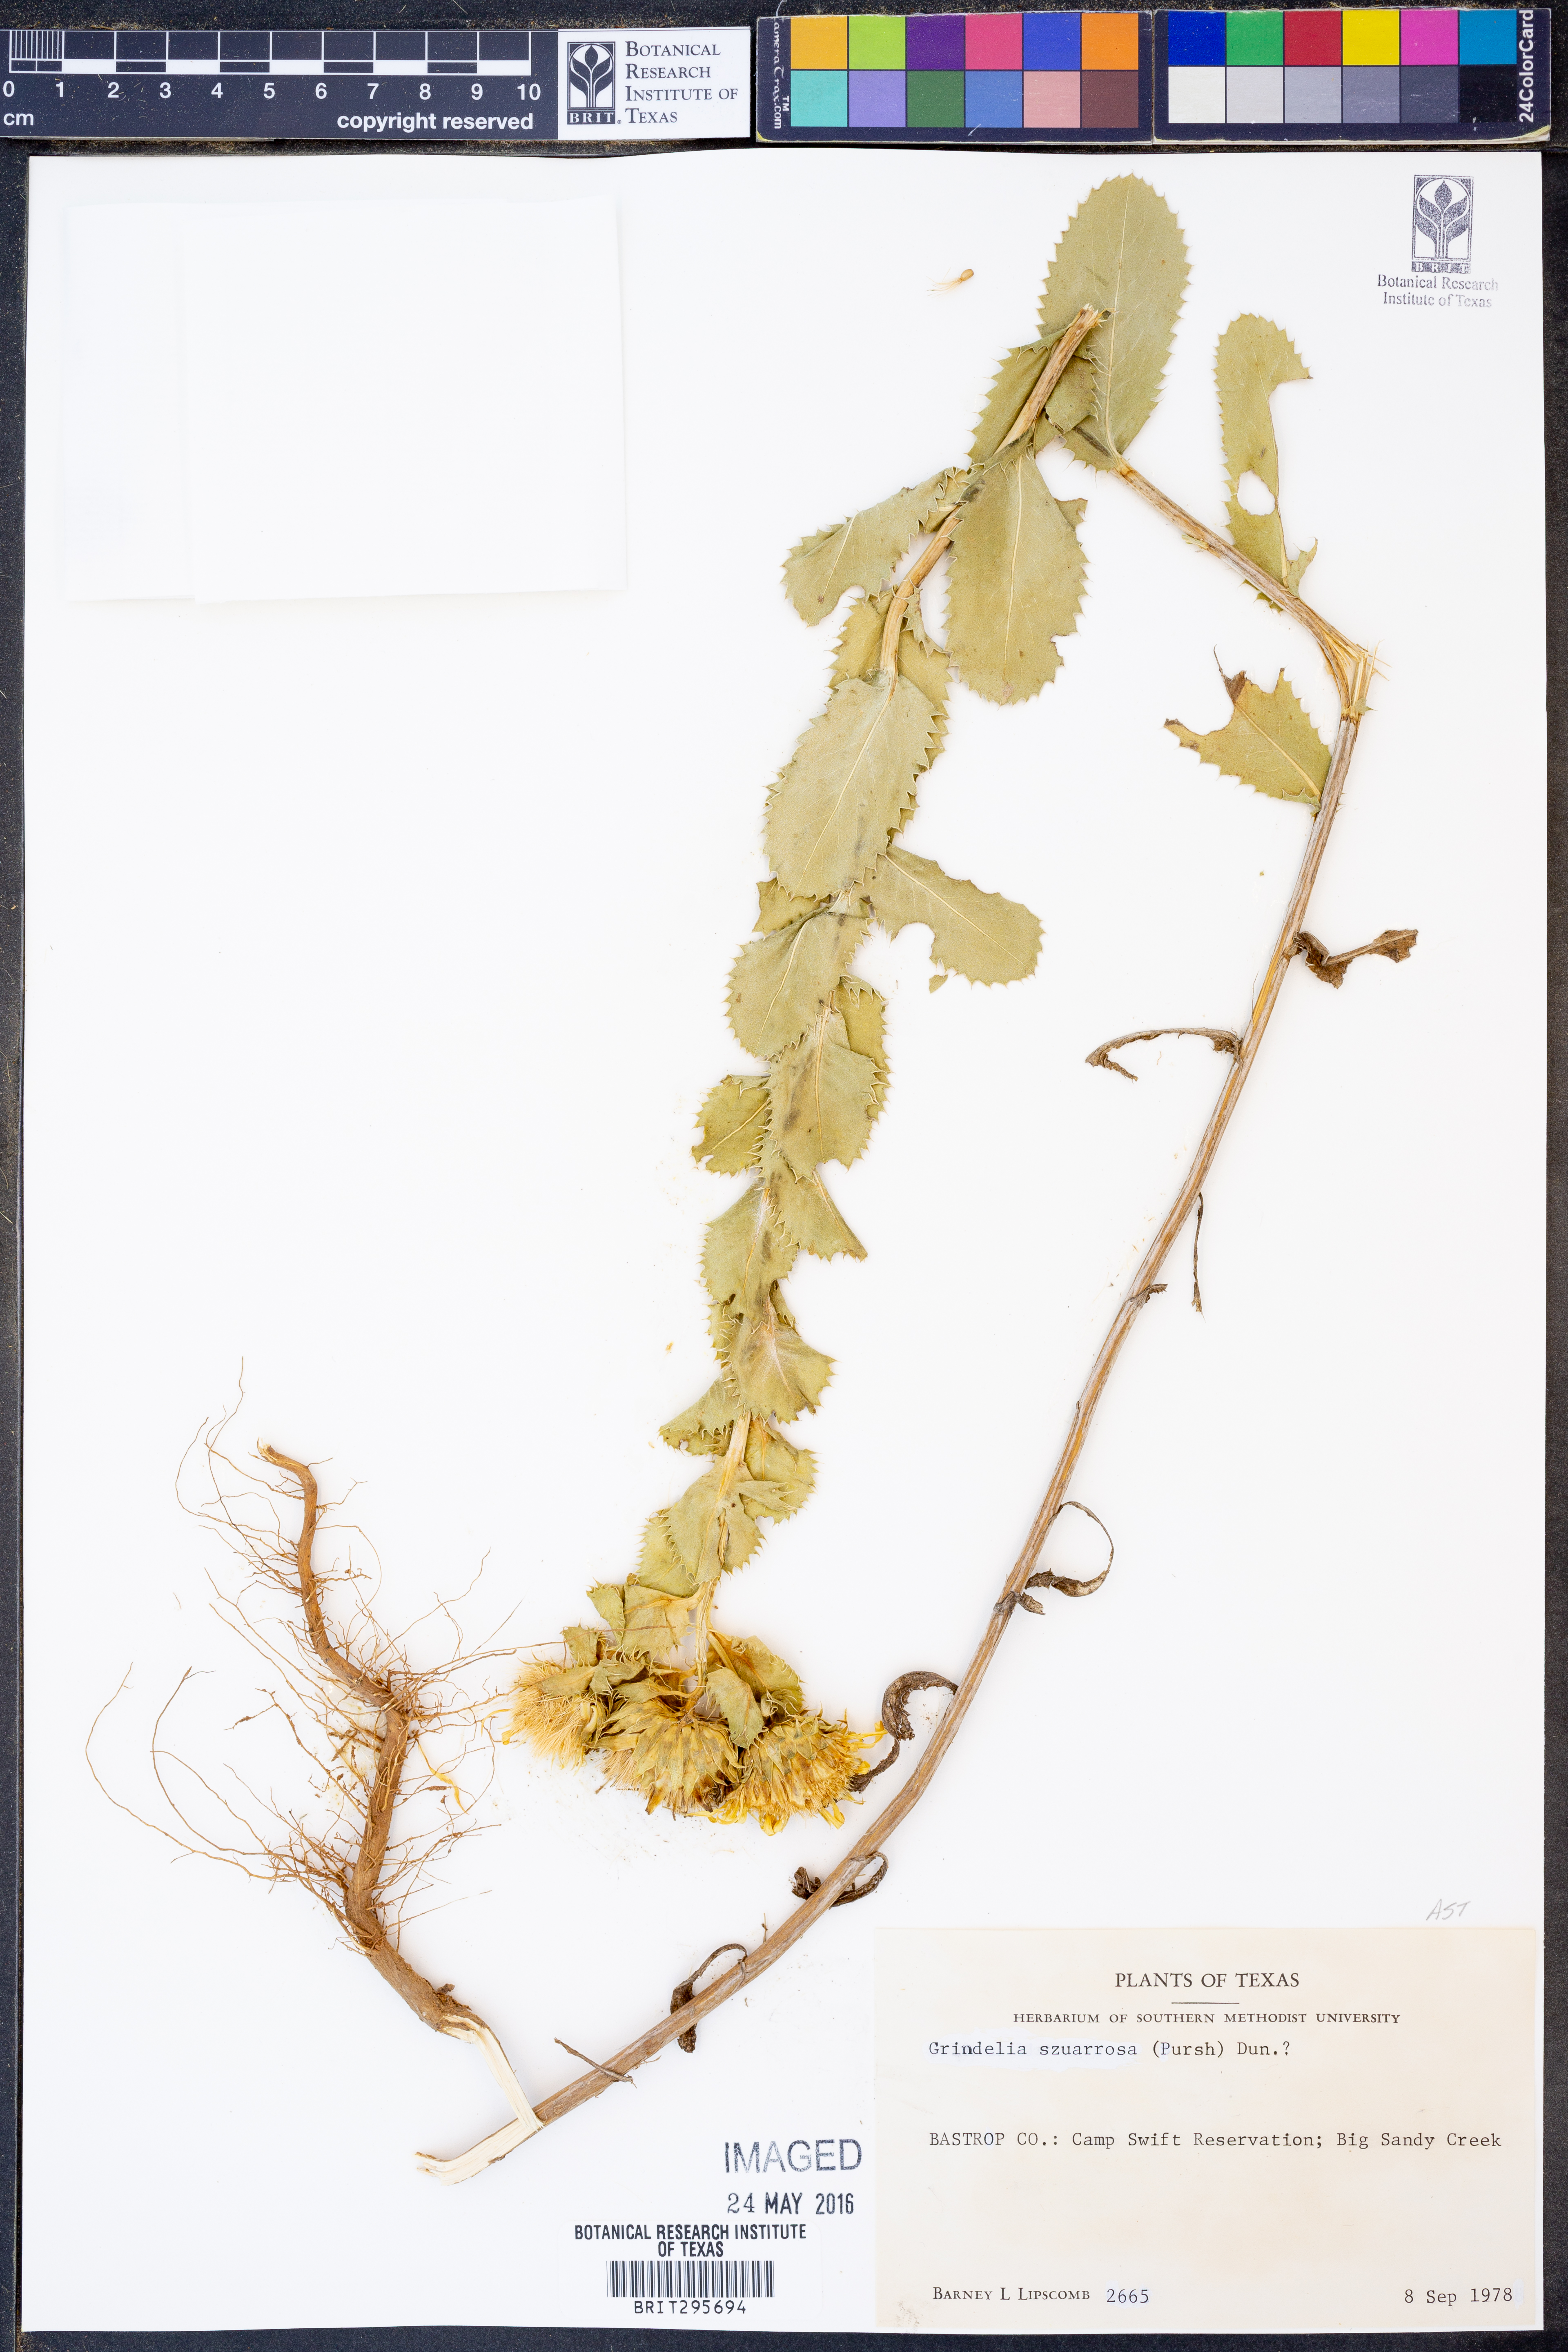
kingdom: Plantae
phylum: Tracheophyta
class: Magnoliopsida
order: Asterales
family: Asteraceae
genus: Grindelia
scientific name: Grindelia squarrosa
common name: Curly-cup gumweed
